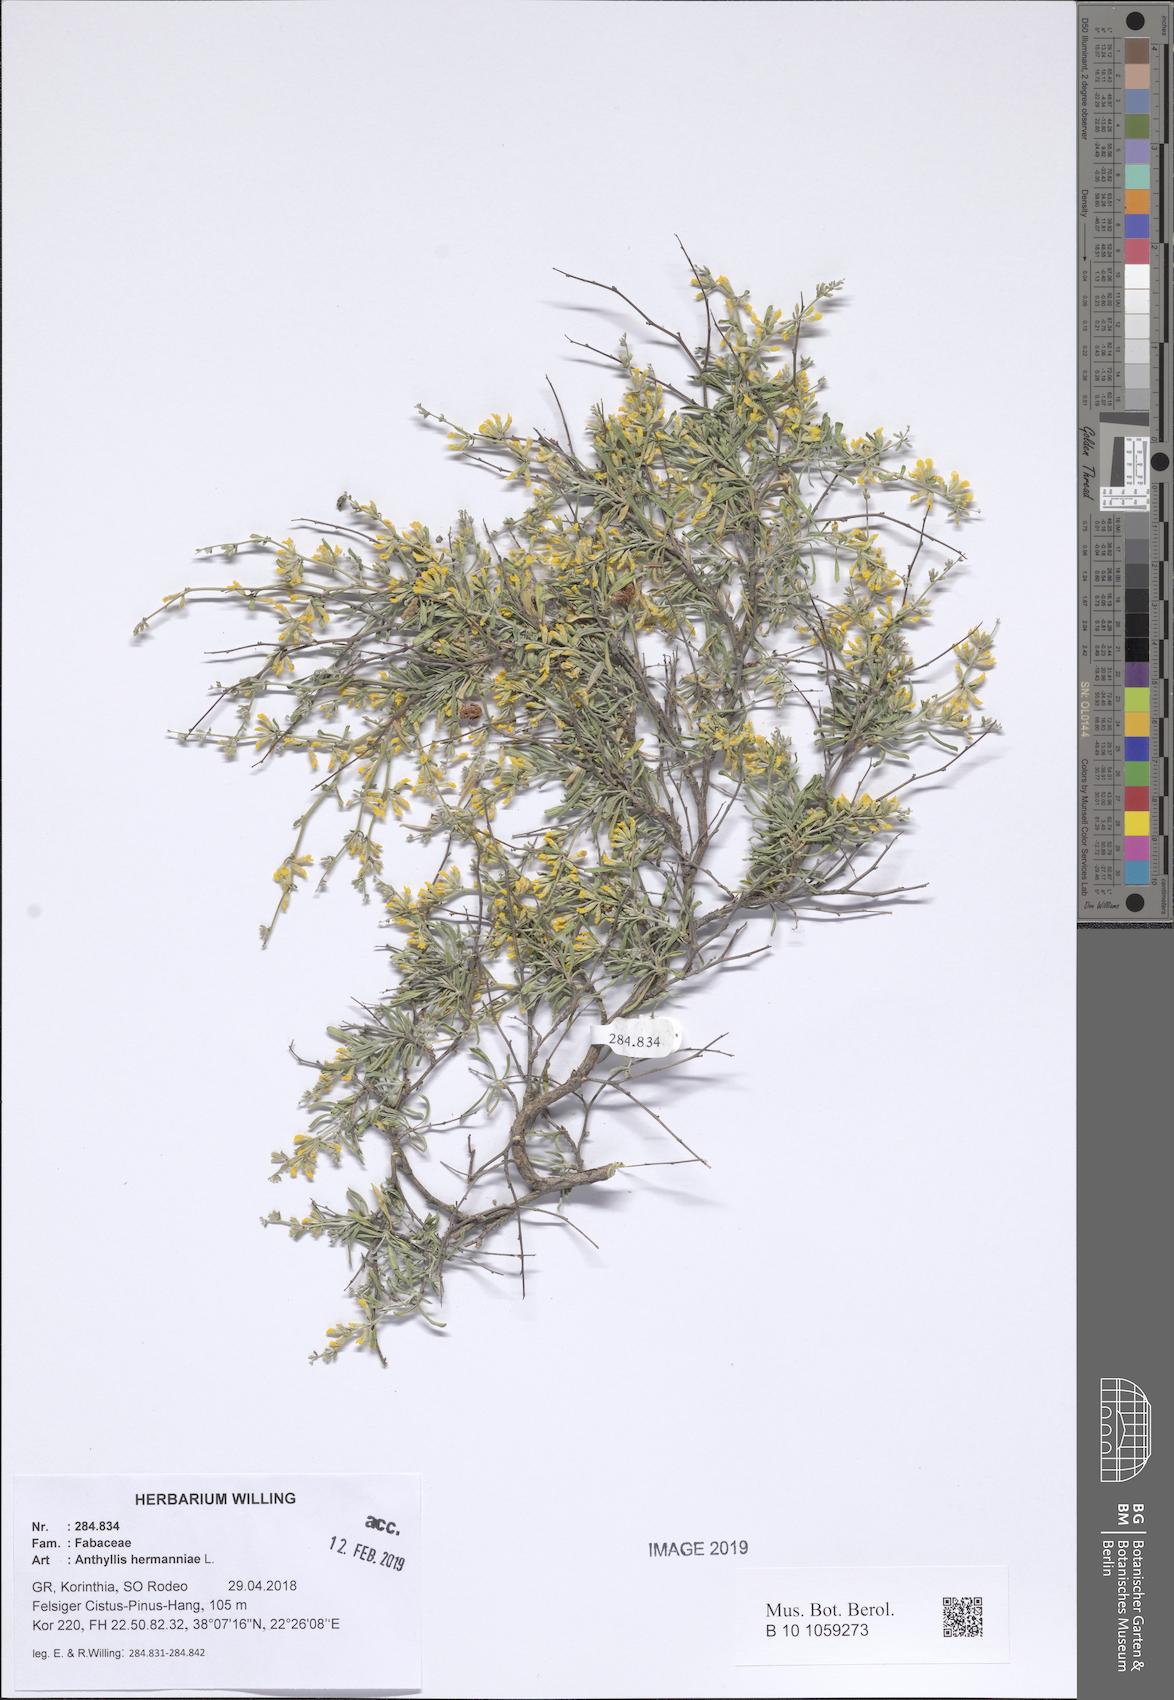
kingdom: Plantae
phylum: Tracheophyta
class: Magnoliopsida
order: Fabales
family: Fabaceae
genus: Anthyllis
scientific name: Anthyllis hermanniae
